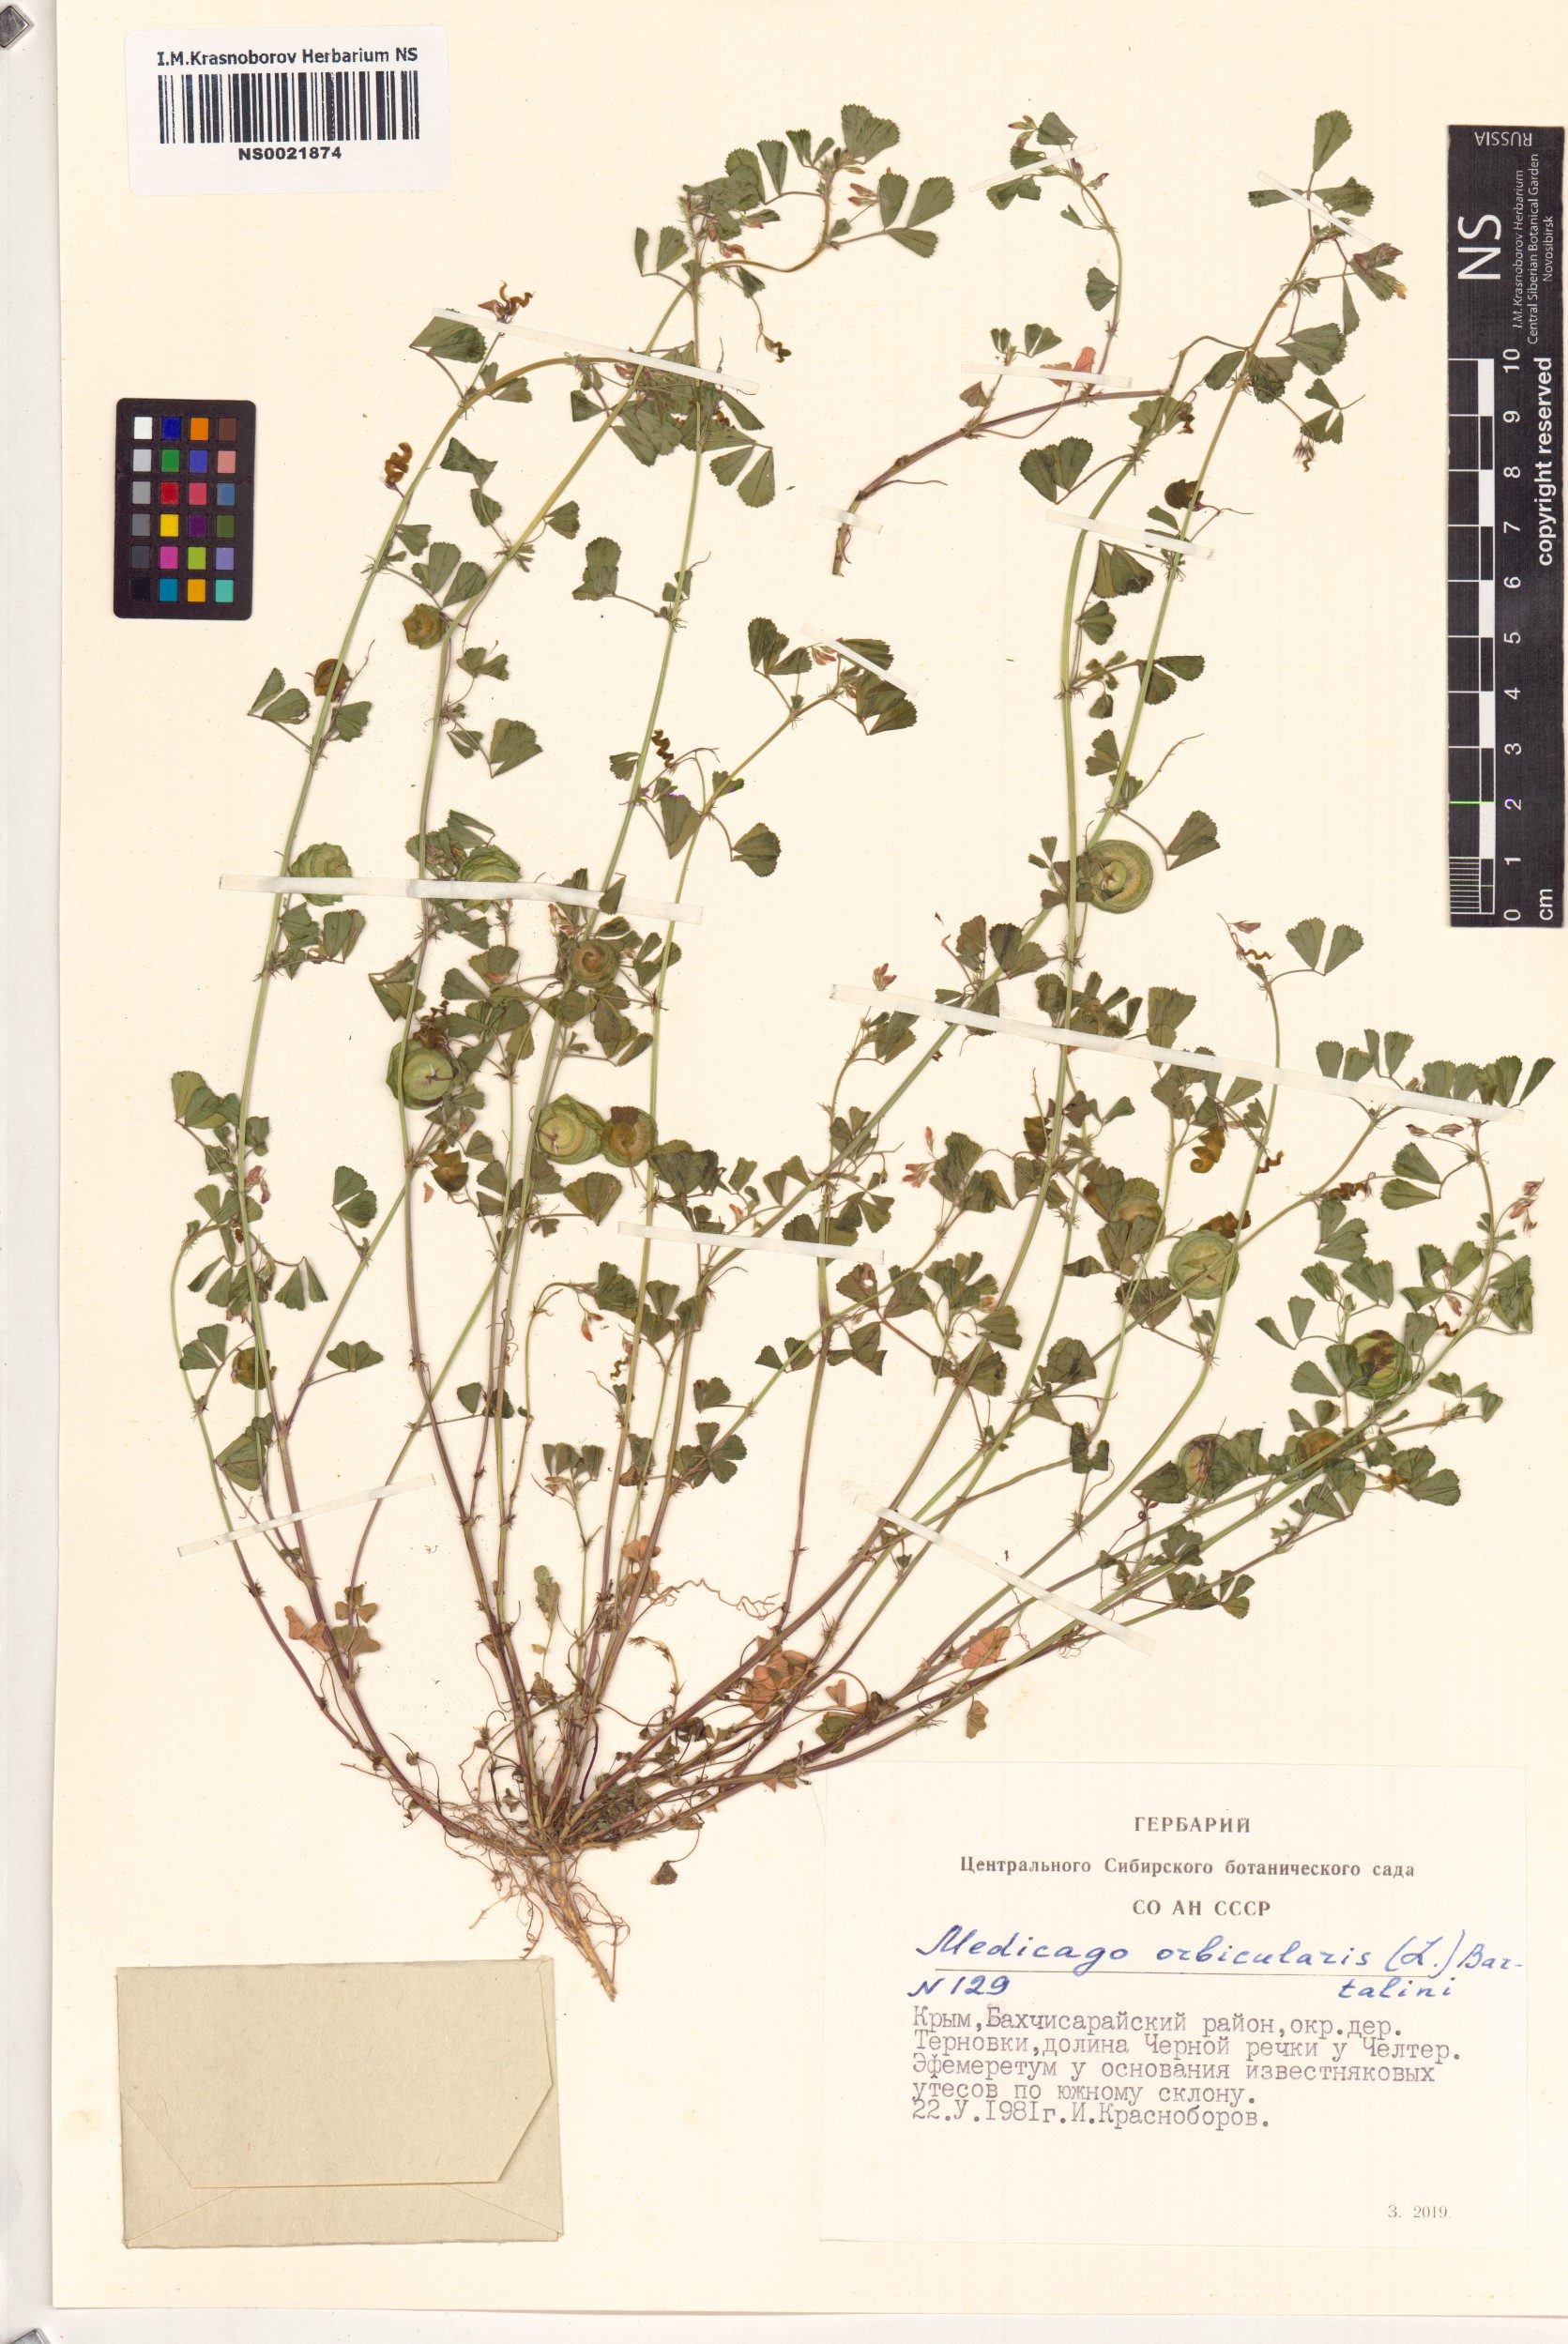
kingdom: Plantae
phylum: Tracheophyta
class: Magnoliopsida
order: Fabales
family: Fabaceae
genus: Medicago
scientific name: Medicago orbicularis
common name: Button medick
